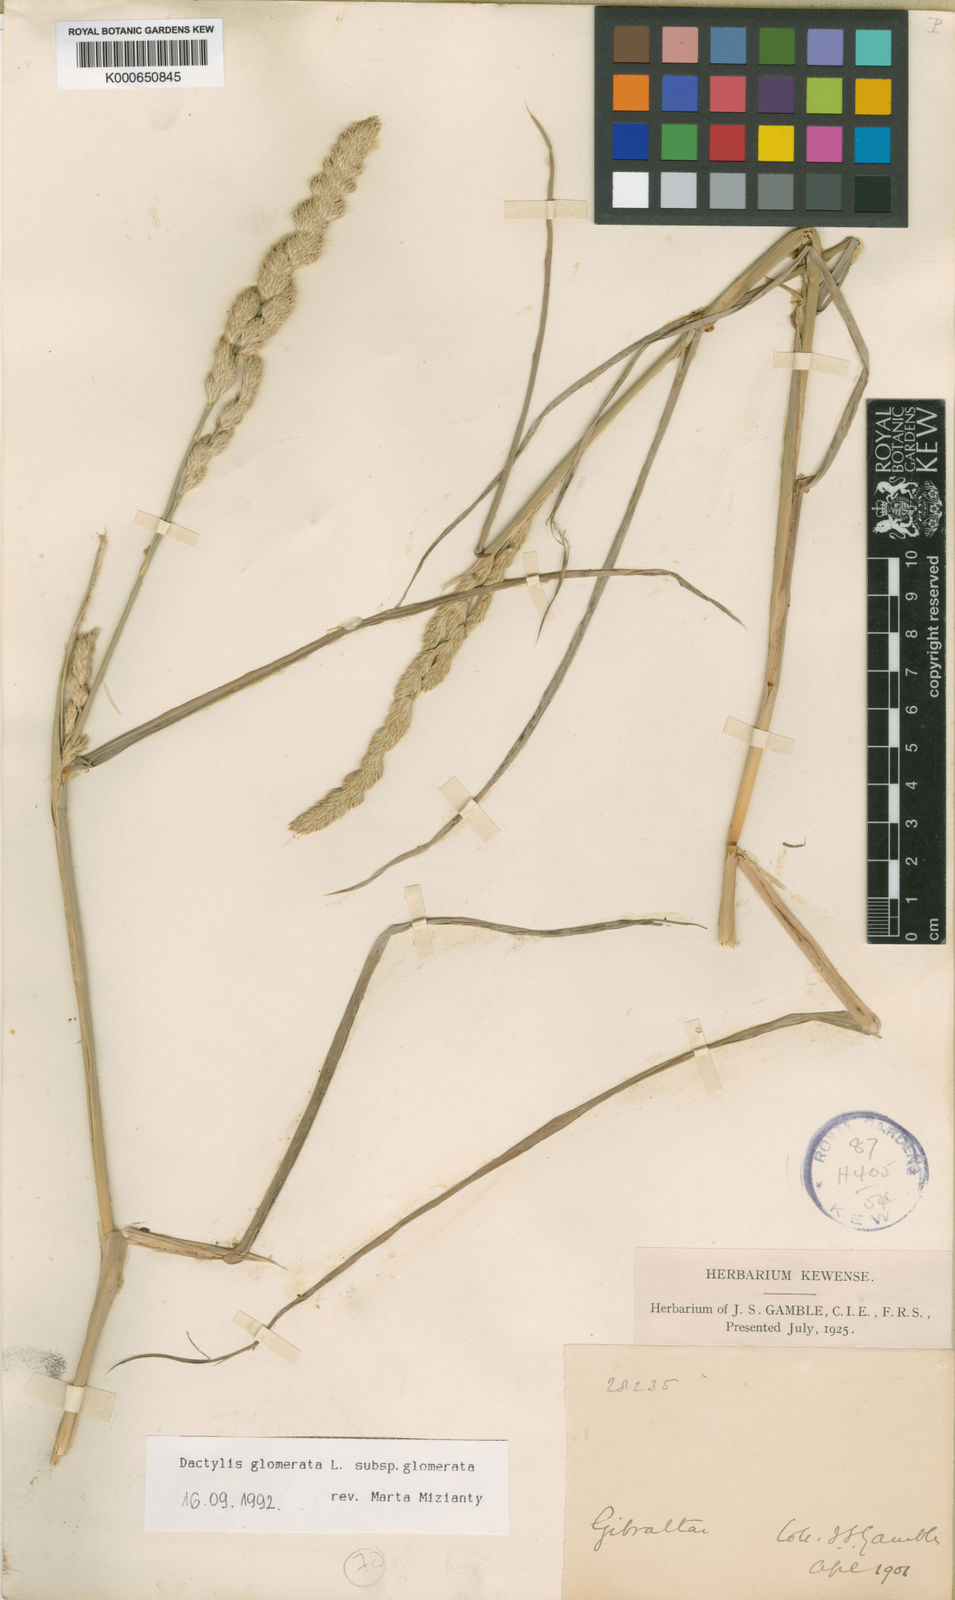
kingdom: Plantae
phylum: Tracheophyta
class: Liliopsida
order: Poales
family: Poaceae
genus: Dactylis
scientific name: Dactylis glomerata
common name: Orchardgrass
